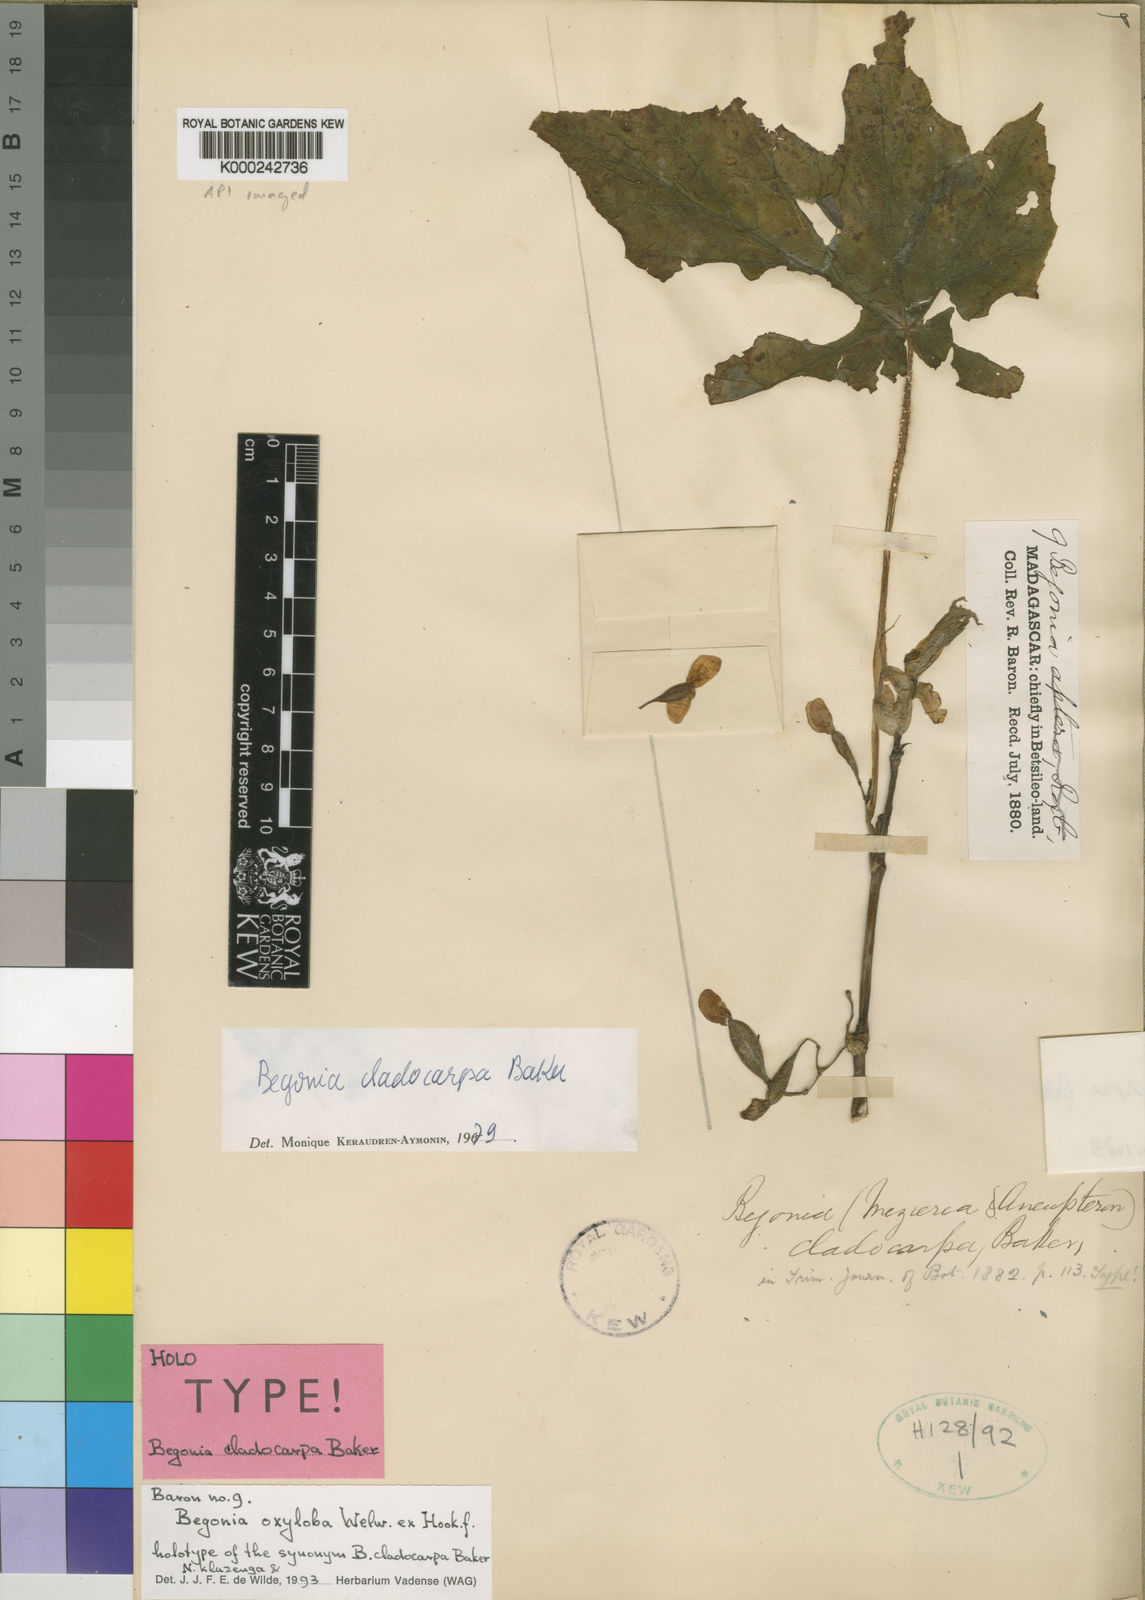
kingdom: Plantae
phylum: Tracheophyta
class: Magnoliopsida
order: Cucurbitales
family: Begoniaceae
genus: Begonia
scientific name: Begonia oxyloba
